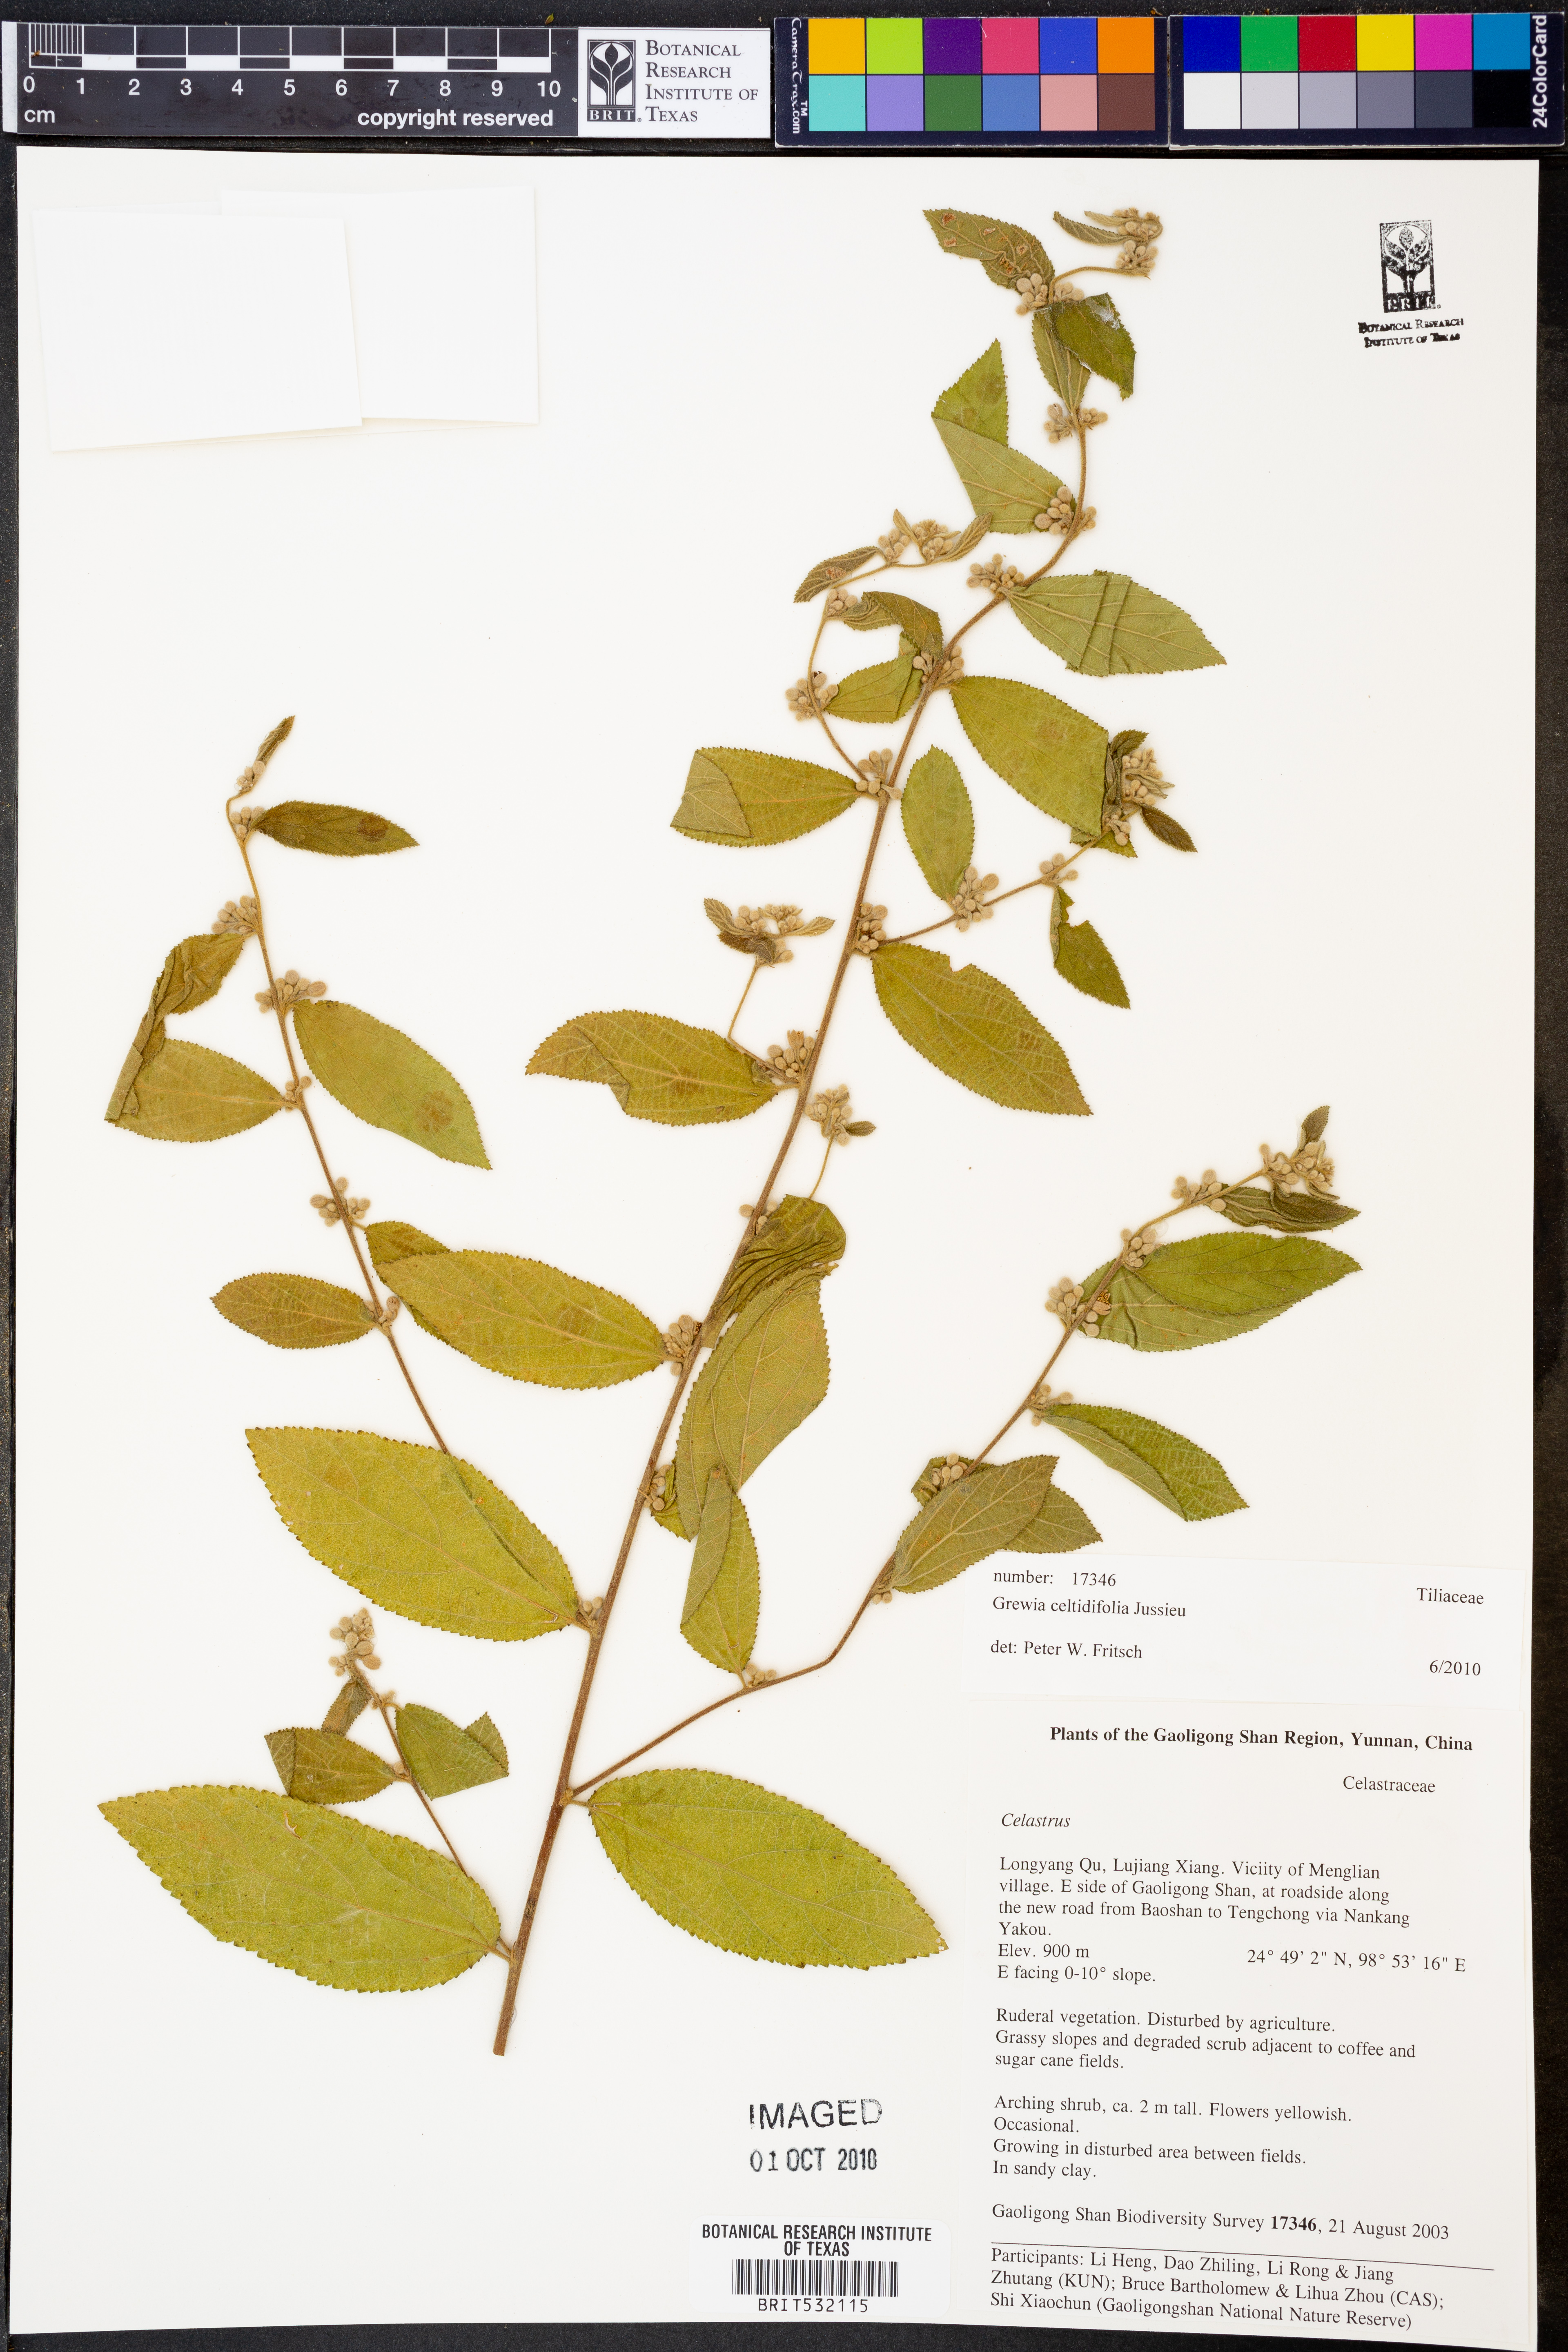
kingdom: Plantae
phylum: Tracheophyta
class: Magnoliopsida
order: Malvales
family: Malvaceae
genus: Grewia
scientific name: Grewia celtidifolia
